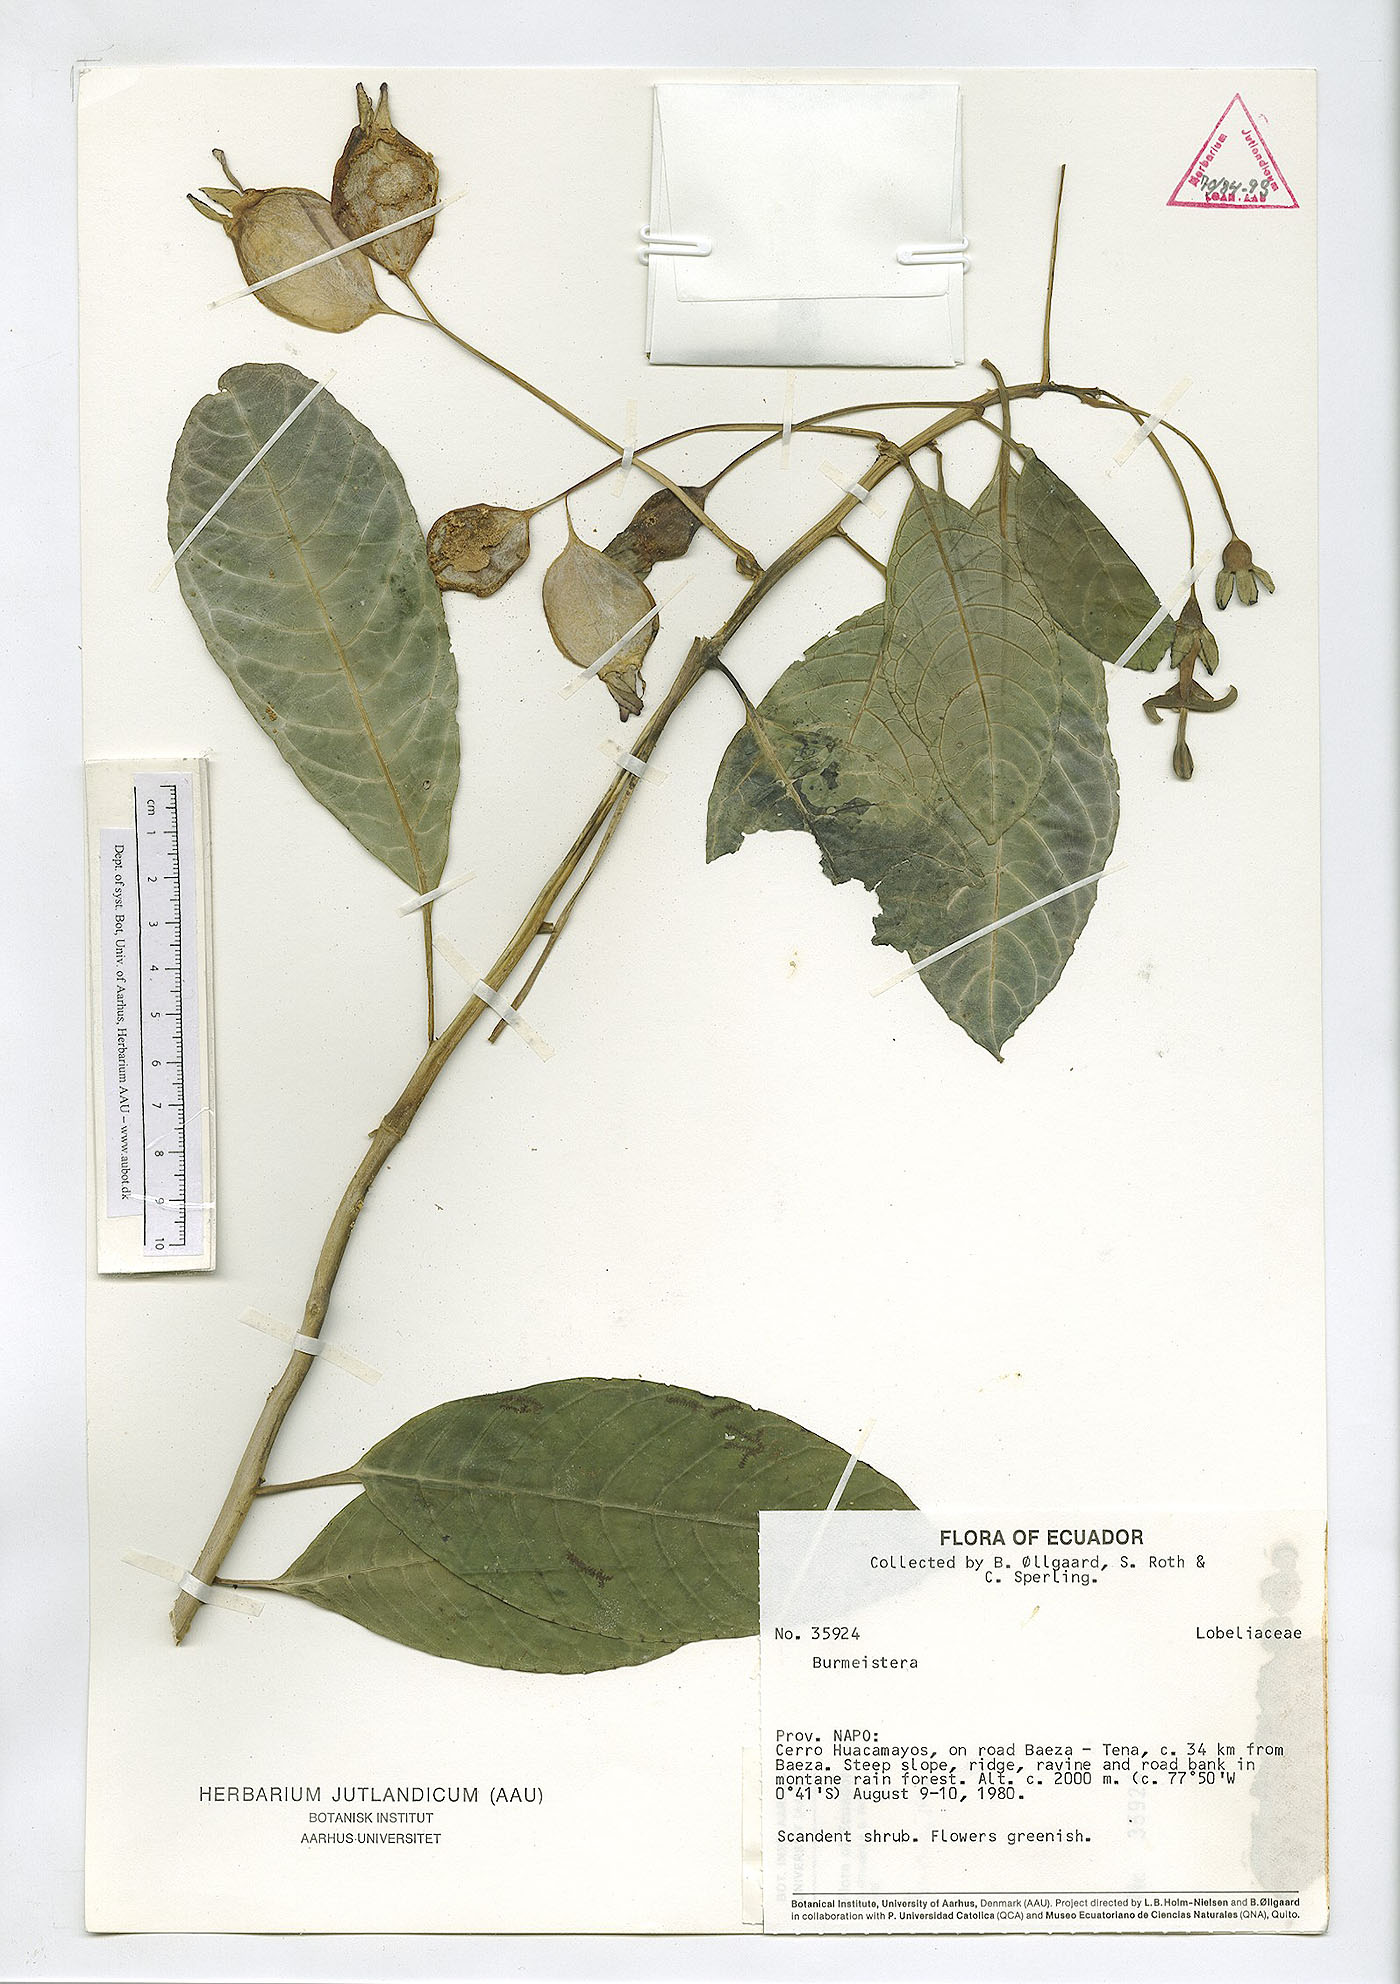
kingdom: Plantae
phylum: Tracheophyta
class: Magnoliopsida
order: Asterales
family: Campanulaceae
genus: Burmeistera
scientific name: Burmeistera
